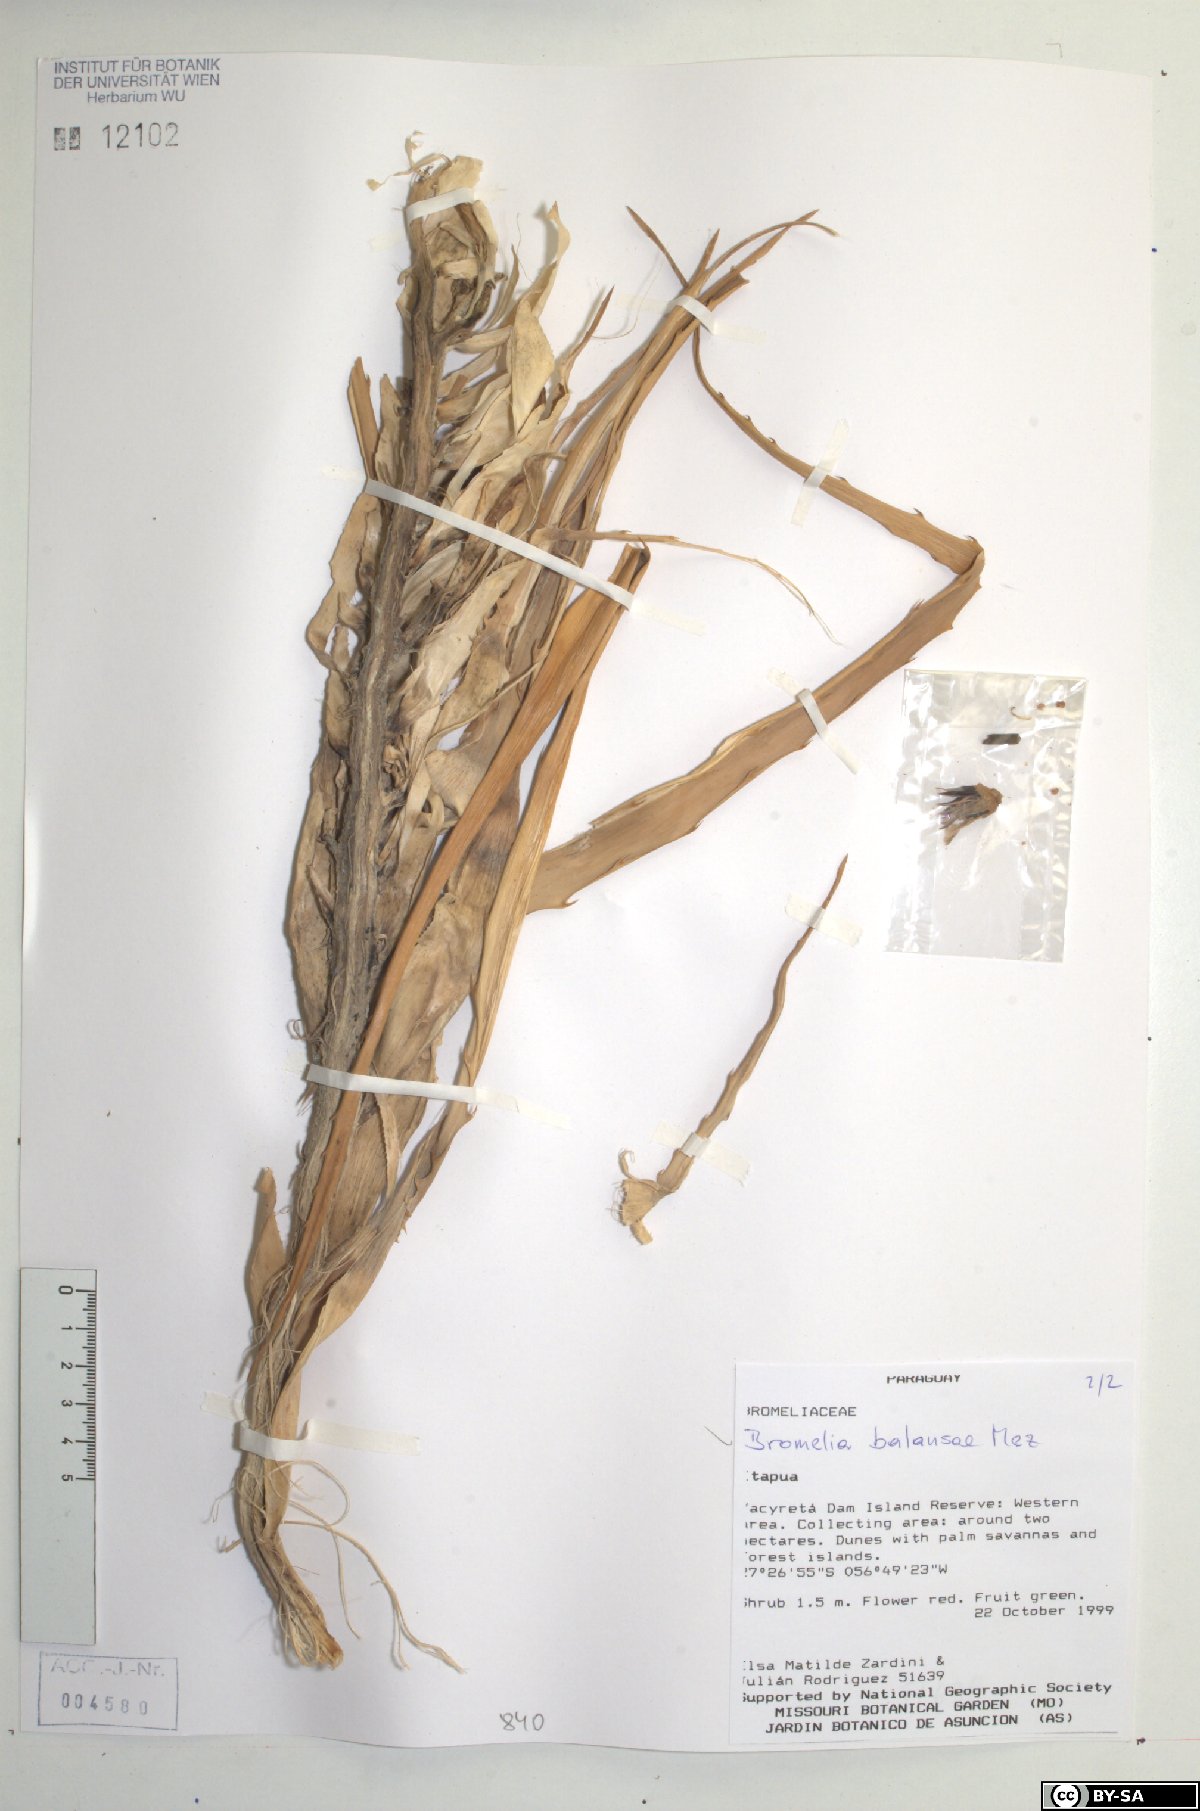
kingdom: Plantae
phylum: Tracheophyta
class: Liliopsida
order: Poales
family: Bromeliaceae
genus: Bromelia
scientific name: Bromelia balansae
